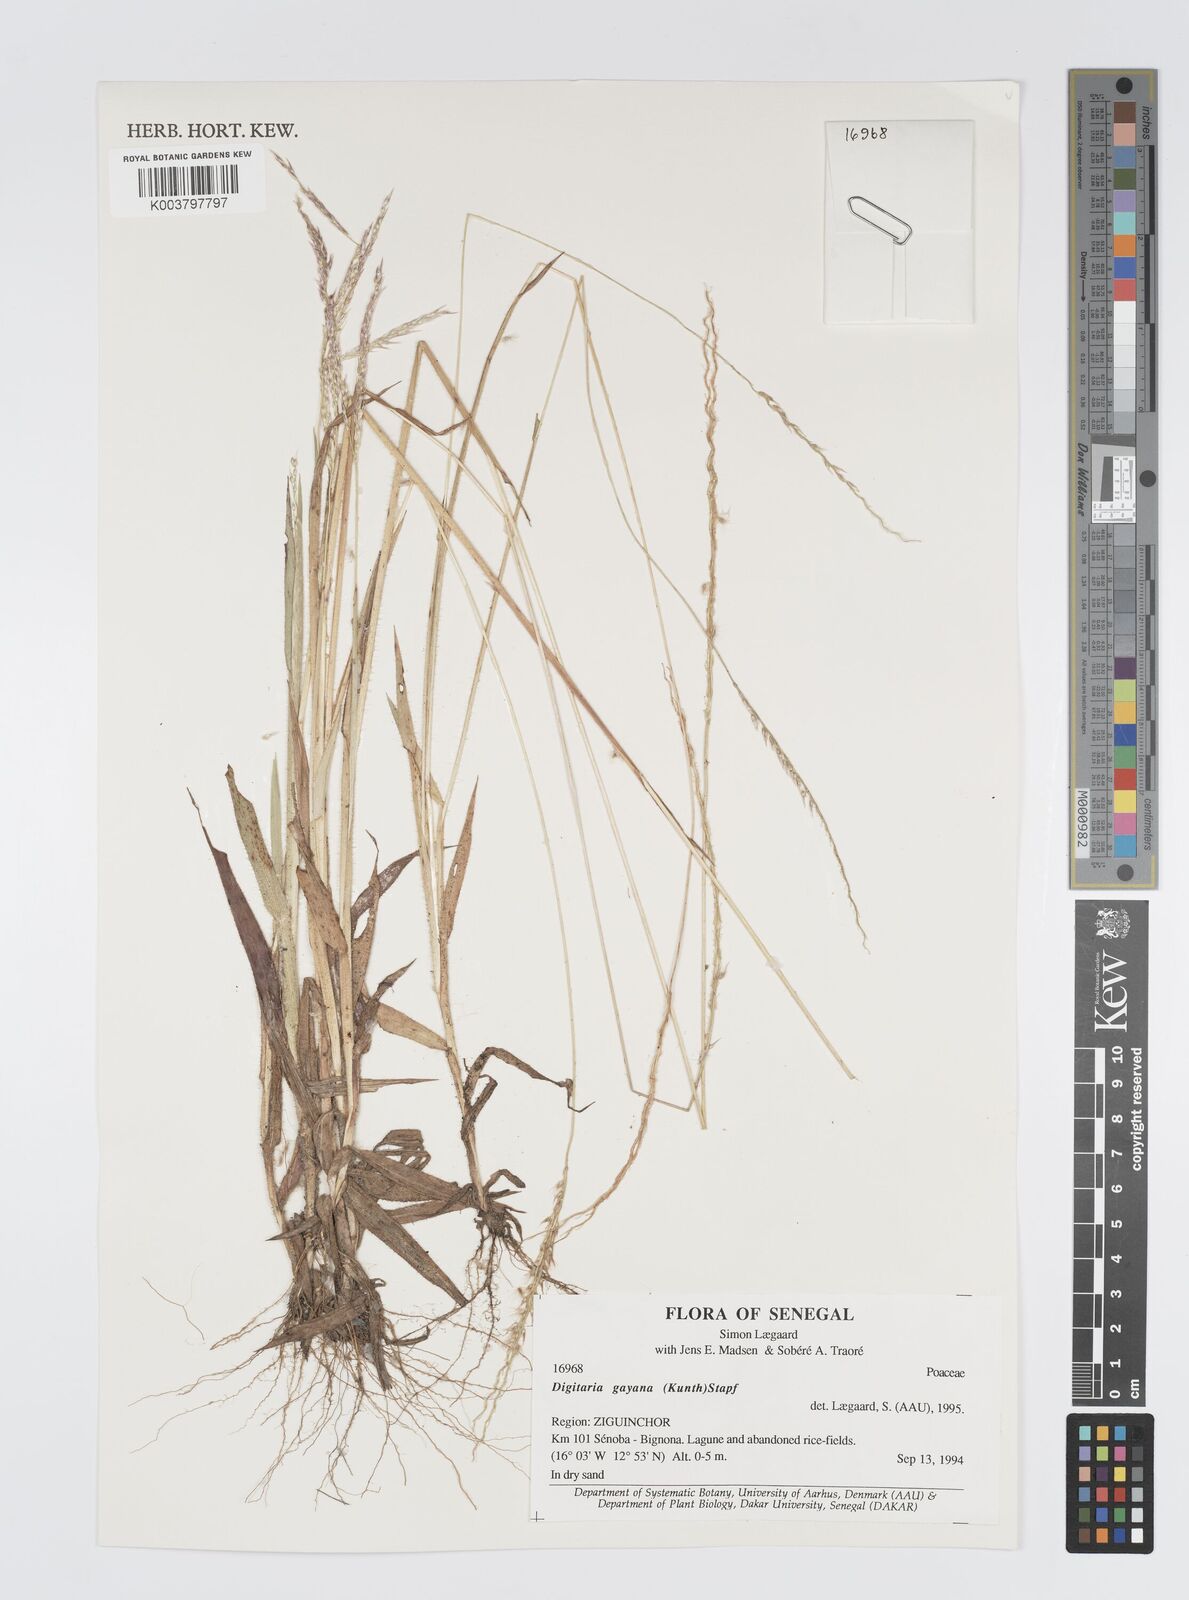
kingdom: Plantae
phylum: Tracheophyta
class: Liliopsida
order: Poales
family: Poaceae
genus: Digitaria
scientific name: Digitaria gayana
